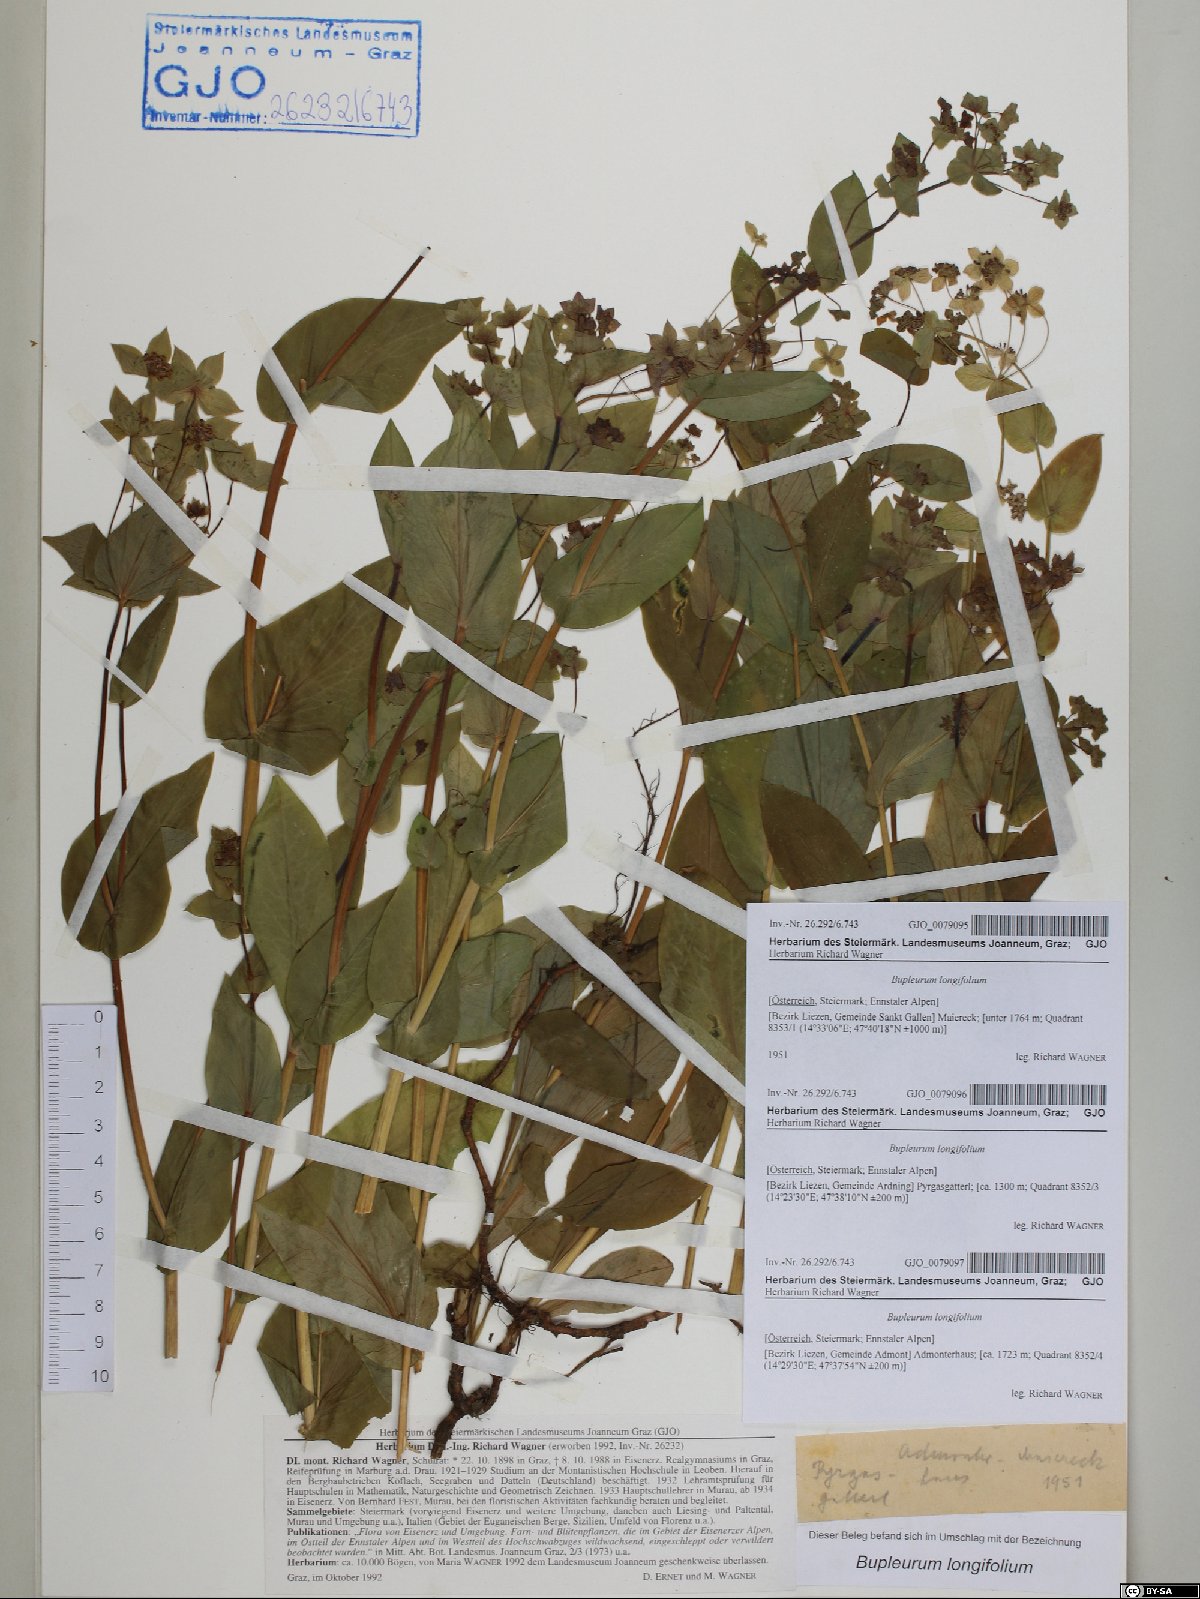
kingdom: Plantae
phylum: Tracheophyta
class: Magnoliopsida
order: Apiales
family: Apiaceae
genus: Bupleurum
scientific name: Bupleurum longifolium
